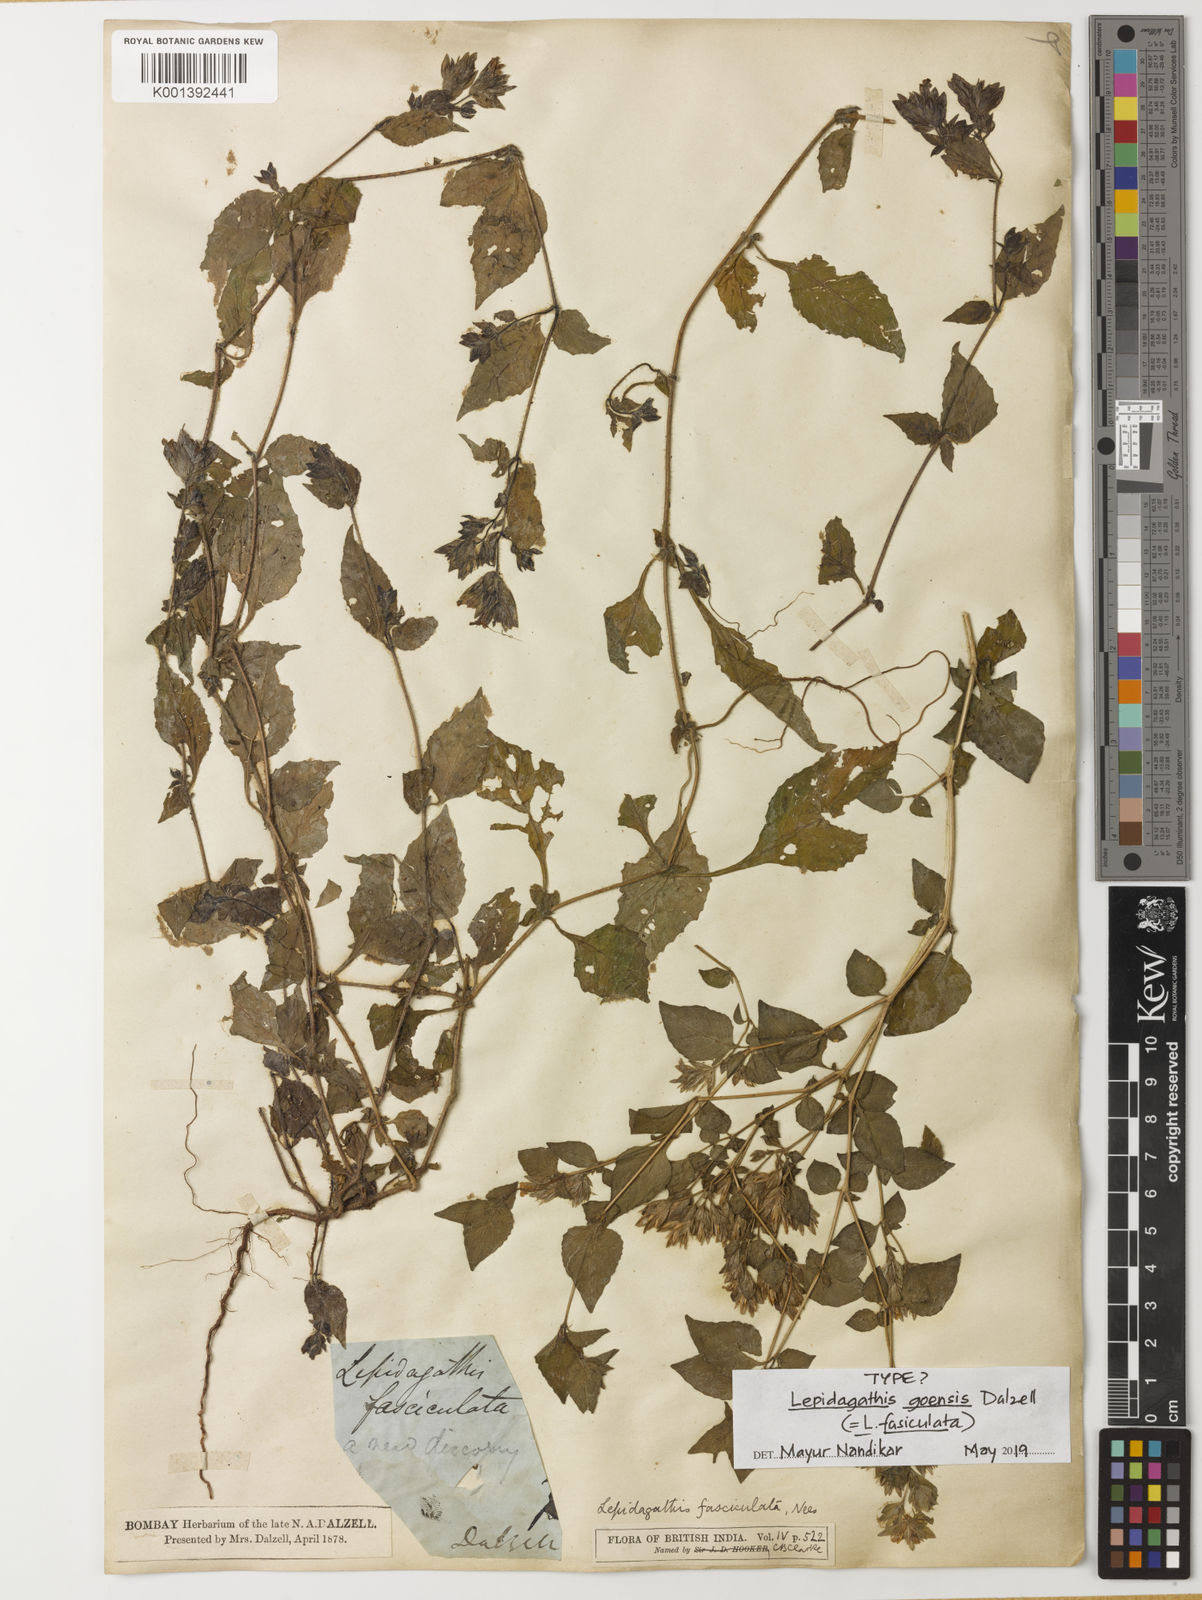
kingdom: Plantae
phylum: Tracheophyta
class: Magnoliopsida
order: Lamiales
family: Acanthaceae
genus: Lepidagathis
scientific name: Lepidagathis fasciculata
